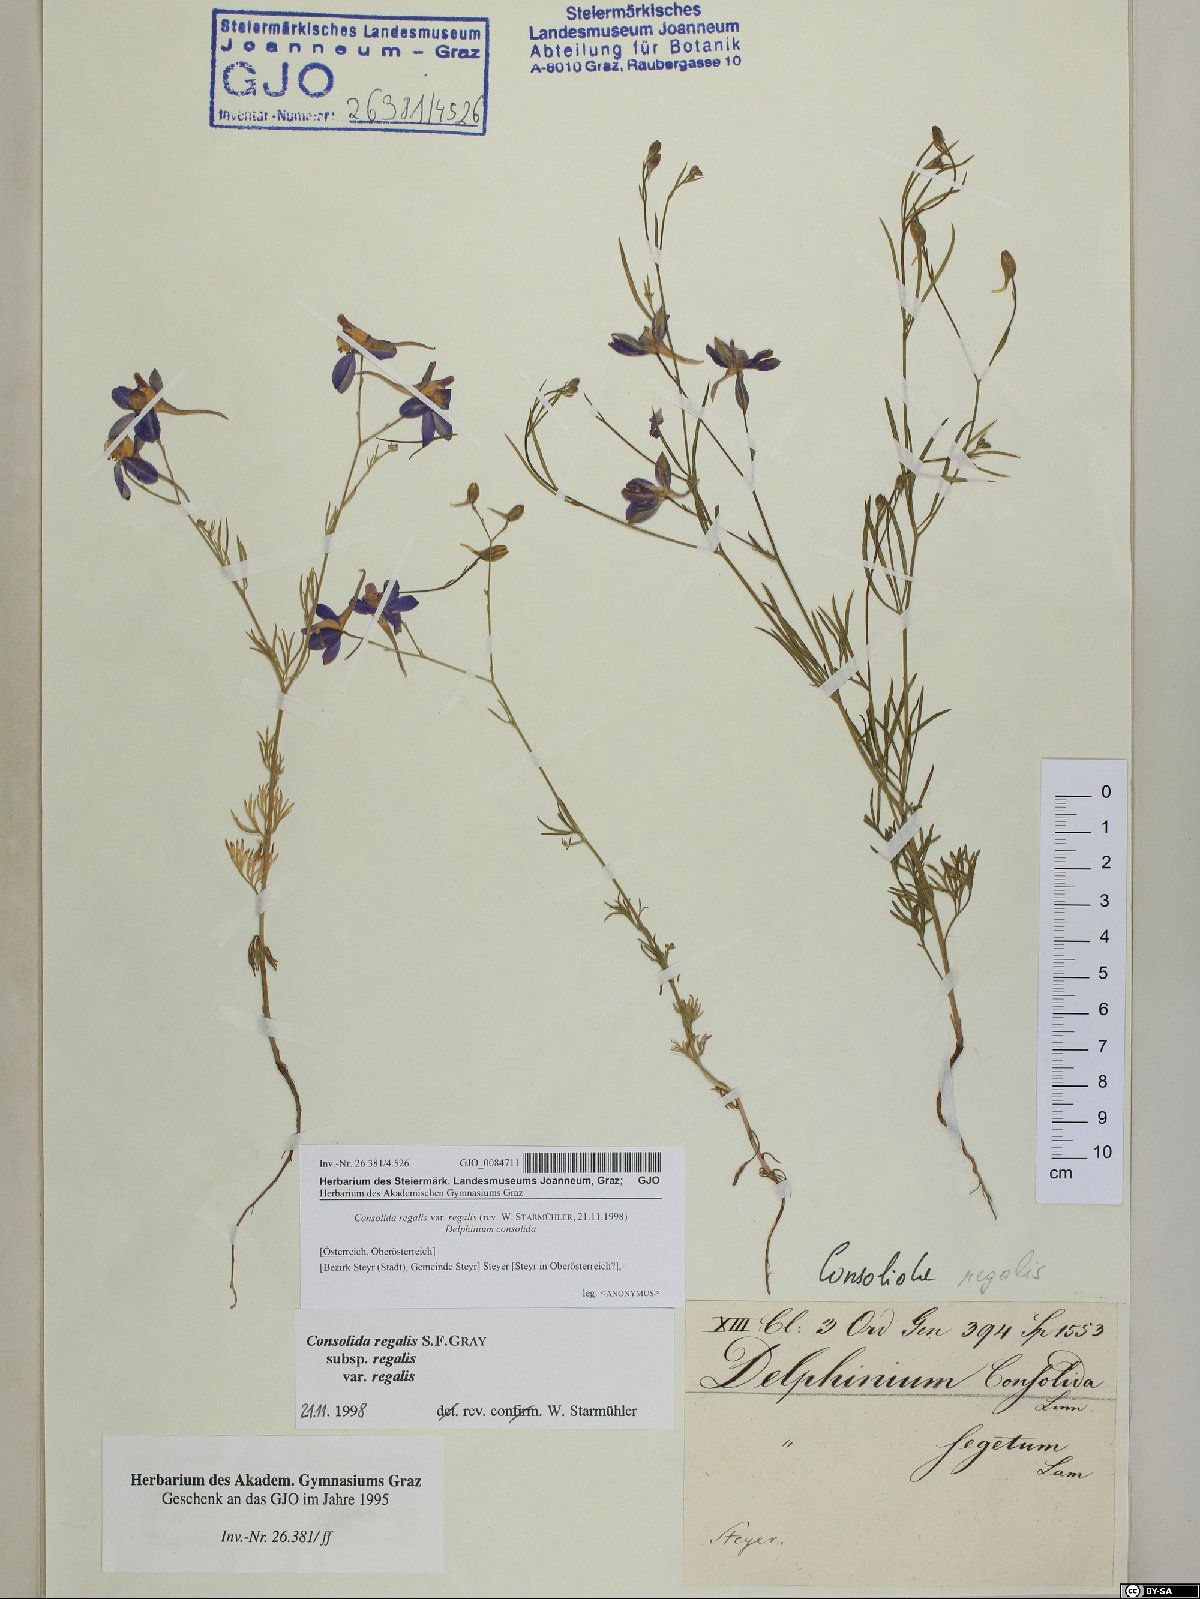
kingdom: Plantae
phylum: Tracheophyta
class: Magnoliopsida
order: Ranunculales
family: Ranunculaceae
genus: Delphinium
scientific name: Delphinium consolida
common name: Branching larkspur
